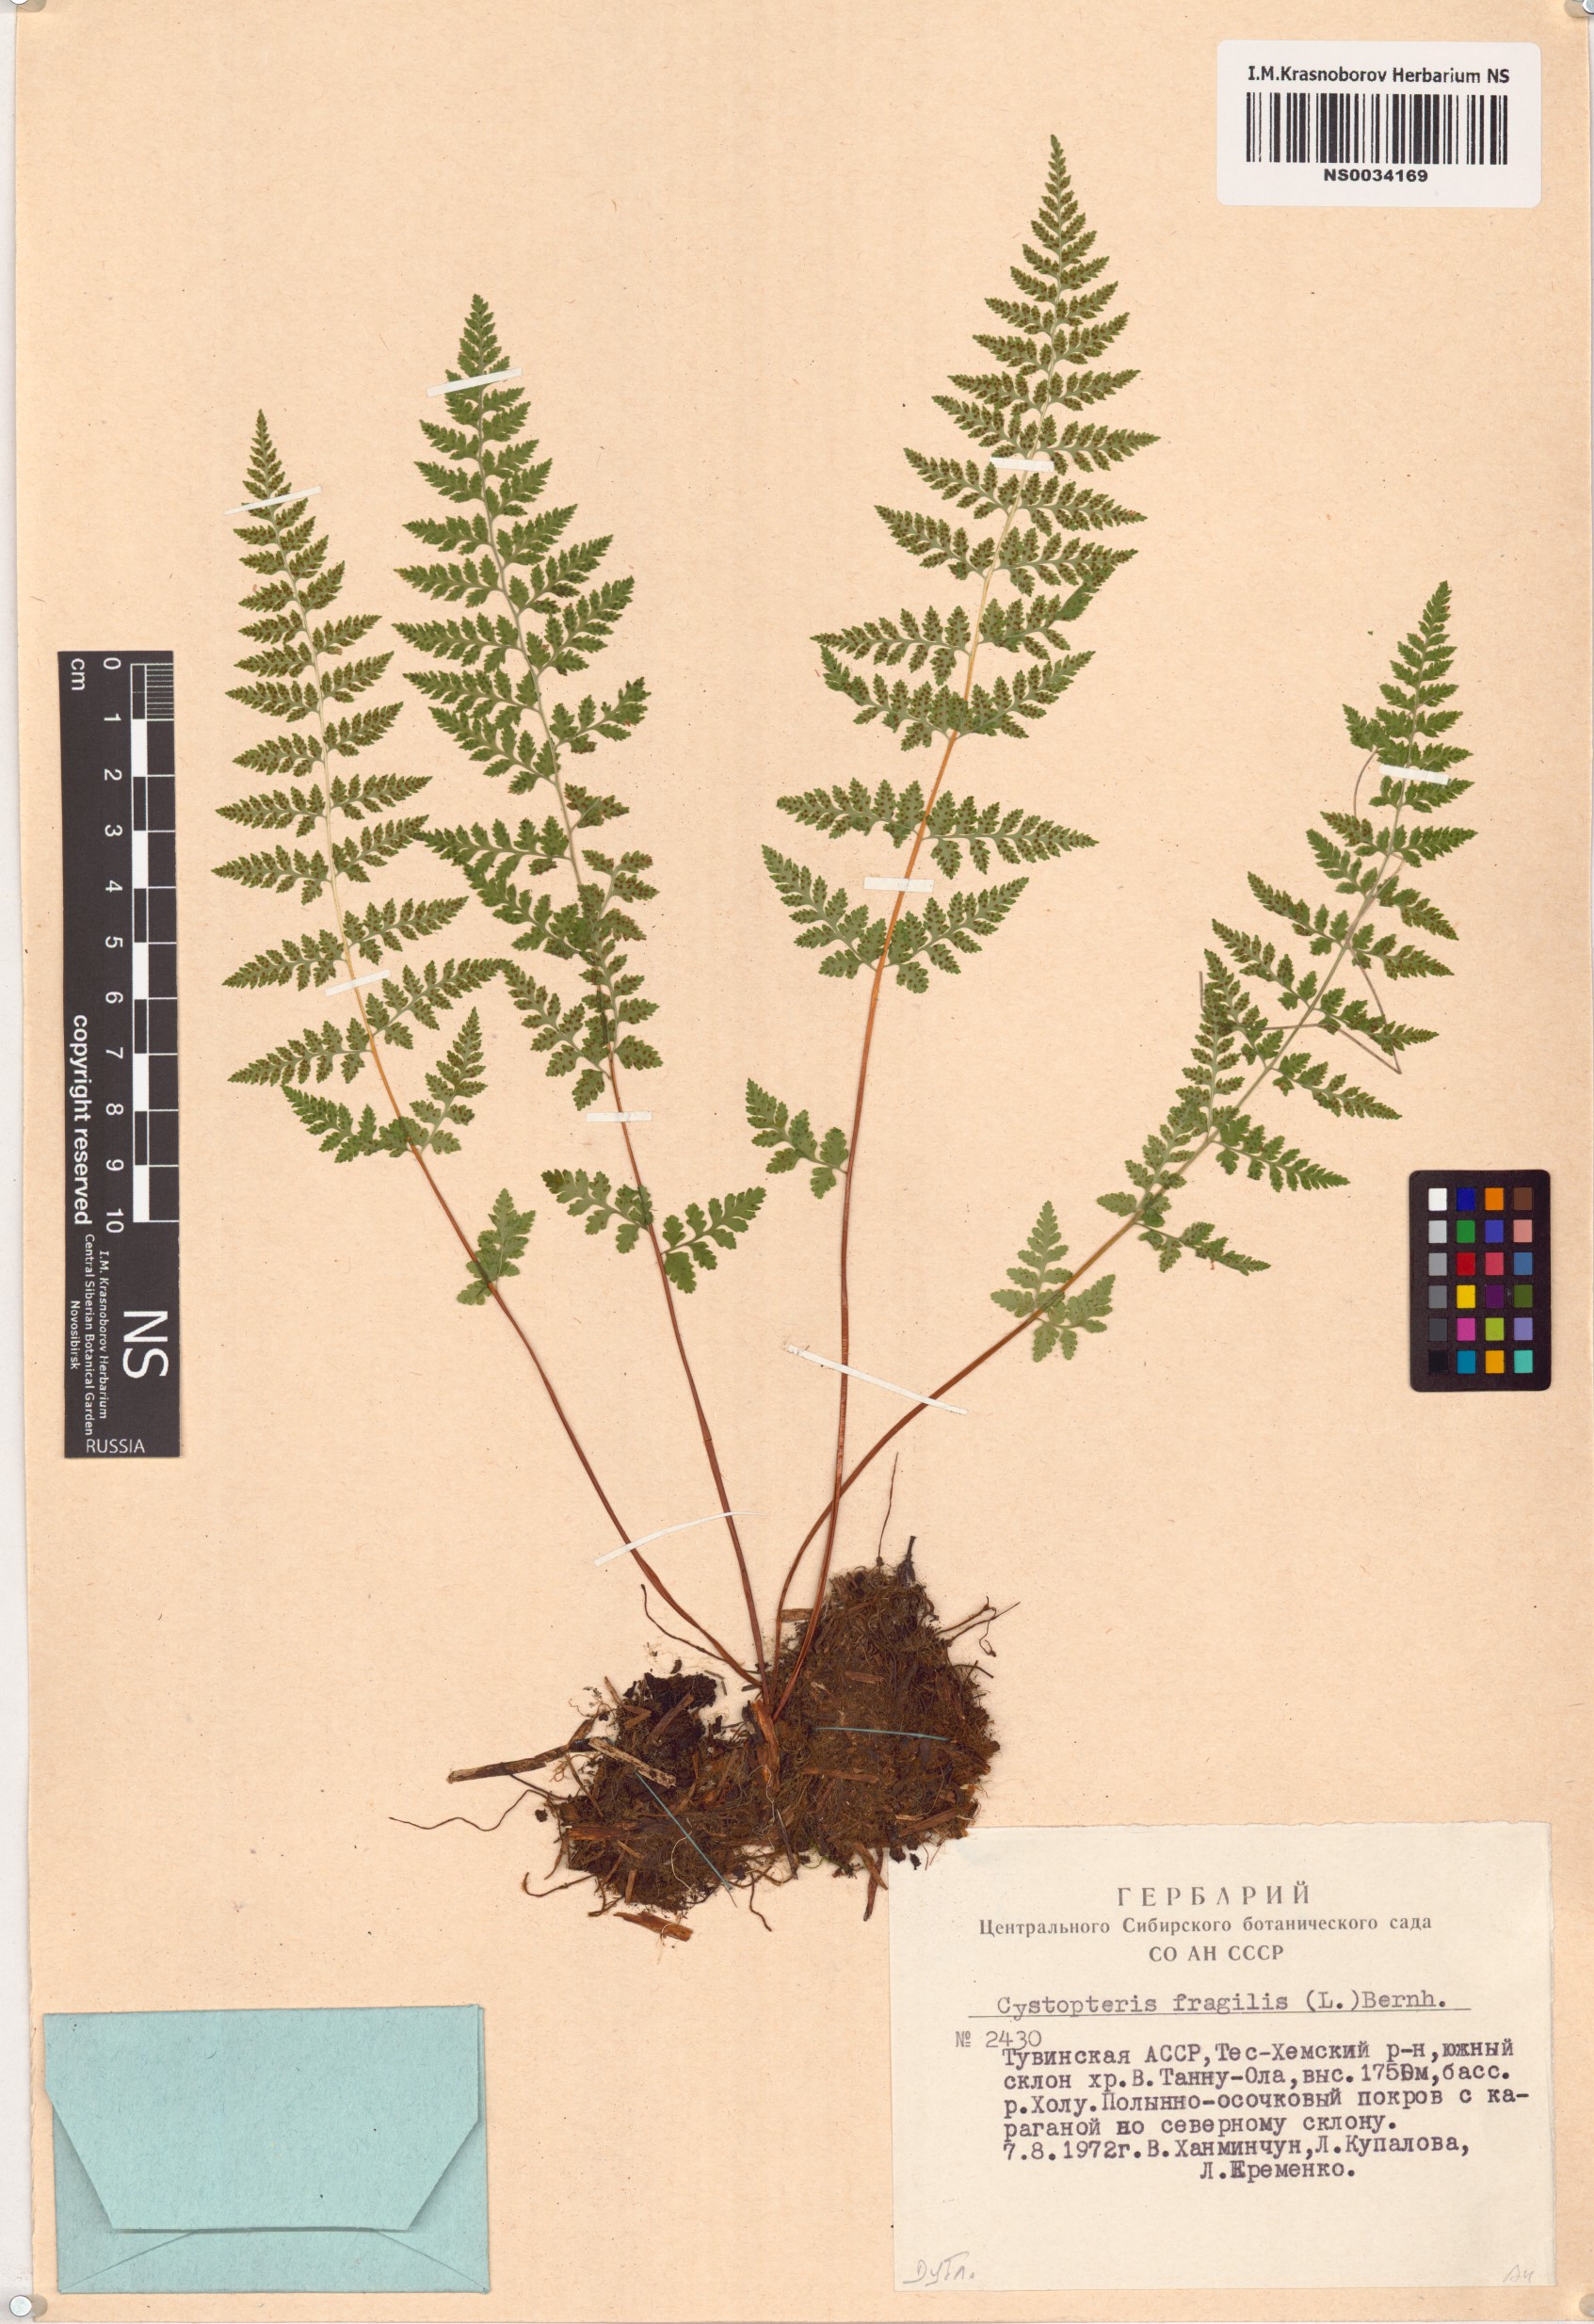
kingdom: Plantae
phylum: Tracheophyta
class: Polypodiopsida
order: Polypodiales
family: Cystopteridaceae
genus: Cystopteris
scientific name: Cystopteris fragilis
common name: Brittle bladder fern
